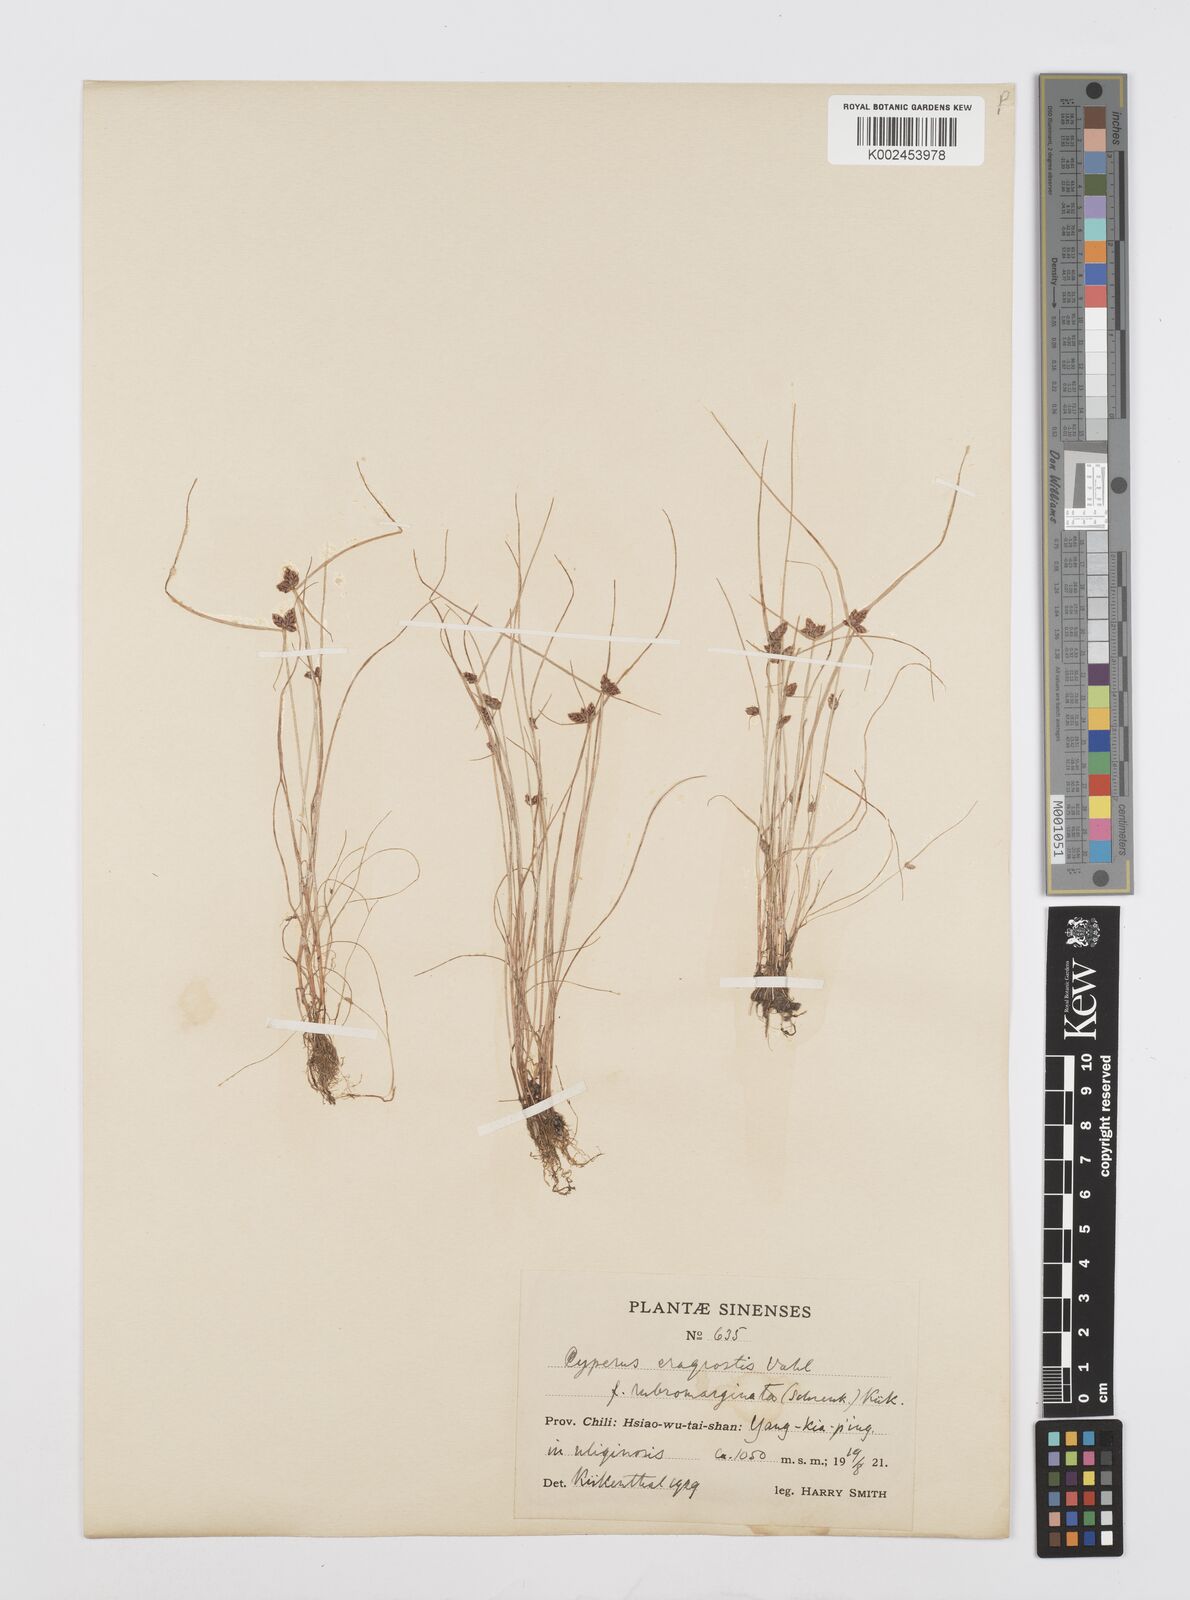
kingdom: Plantae
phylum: Tracheophyta
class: Liliopsida
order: Poales
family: Cyperaceae
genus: Cyperus
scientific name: Cyperus sanguinolentus
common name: Purpleglume flatsedge
